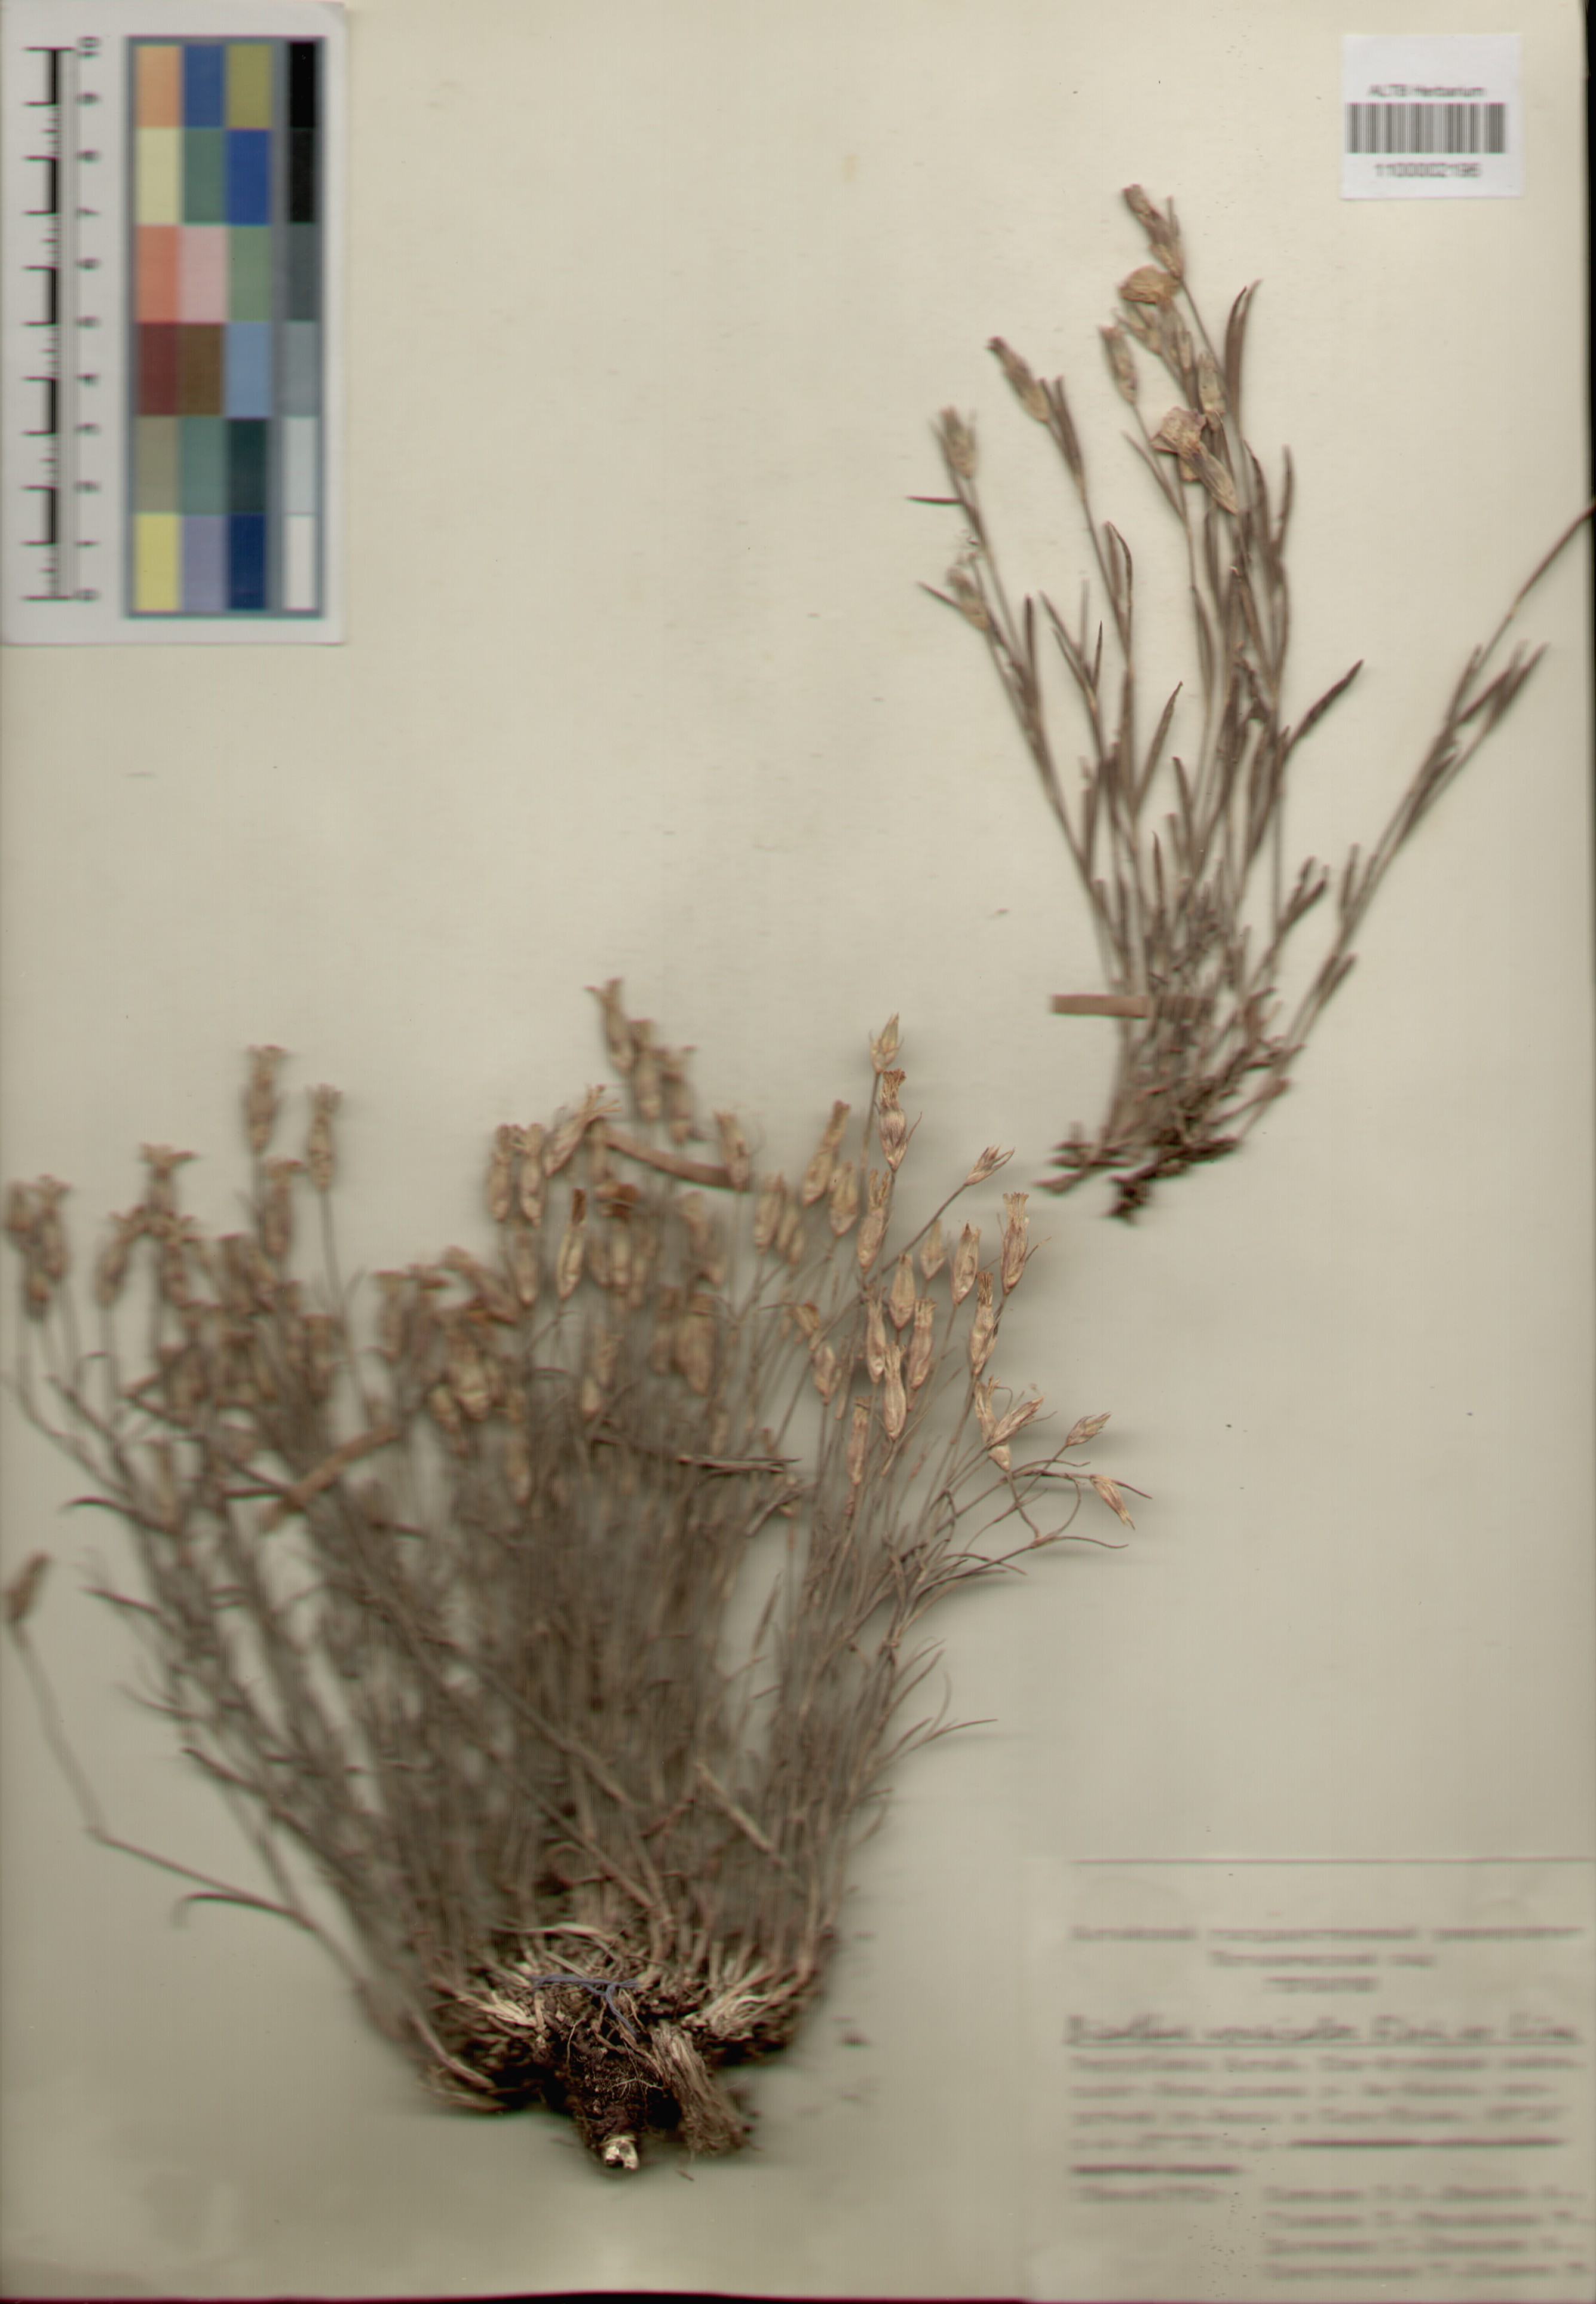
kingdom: Plantae
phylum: Tracheophyta
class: Magnoliopsida
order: Caryophyllales
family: Caryophyllaceae
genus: Dianthus
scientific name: Dianthus chinensis
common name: Rainbow pink
